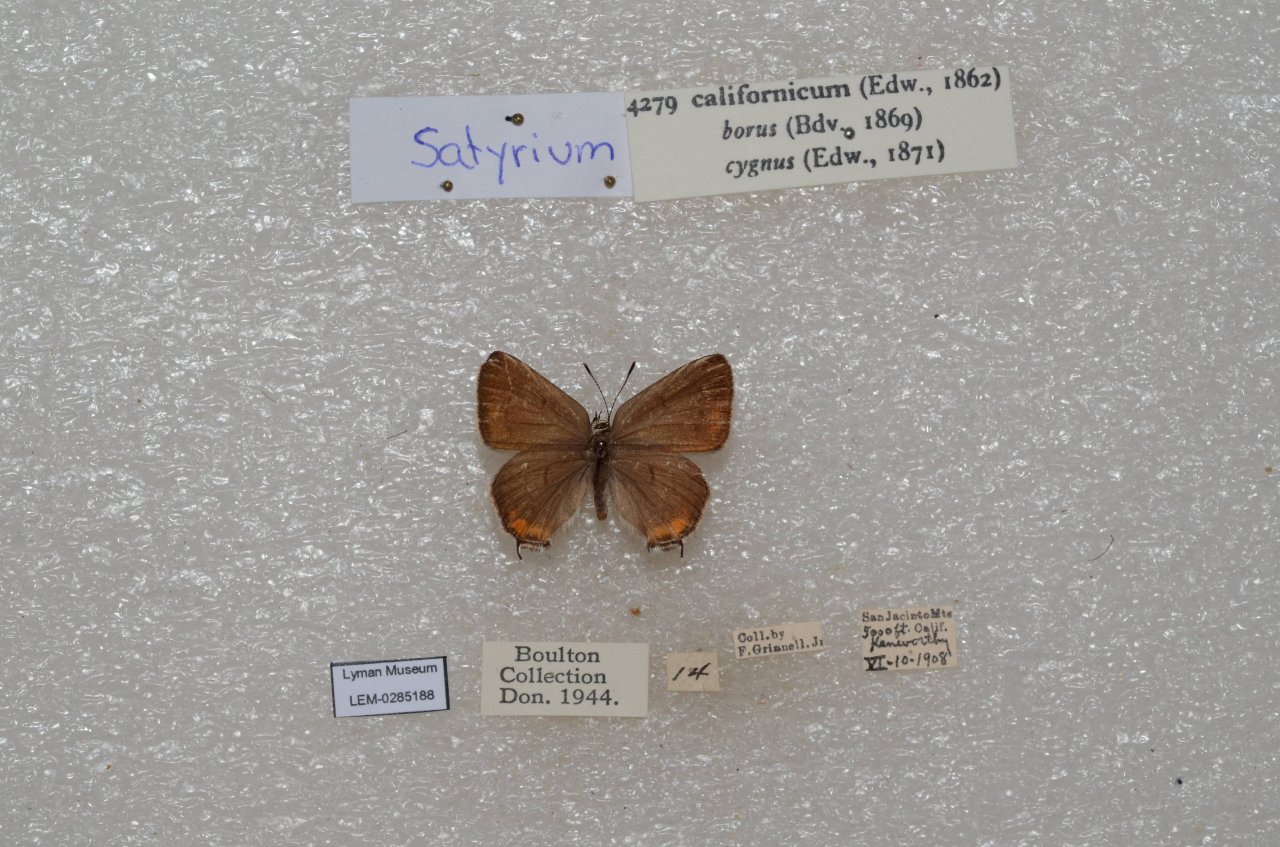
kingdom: Animalia
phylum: Arthropoda
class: Insecta
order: Lepidoptera
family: Lycaenidae
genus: Strymon
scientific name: Strymon acadica
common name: California Hairstreak
